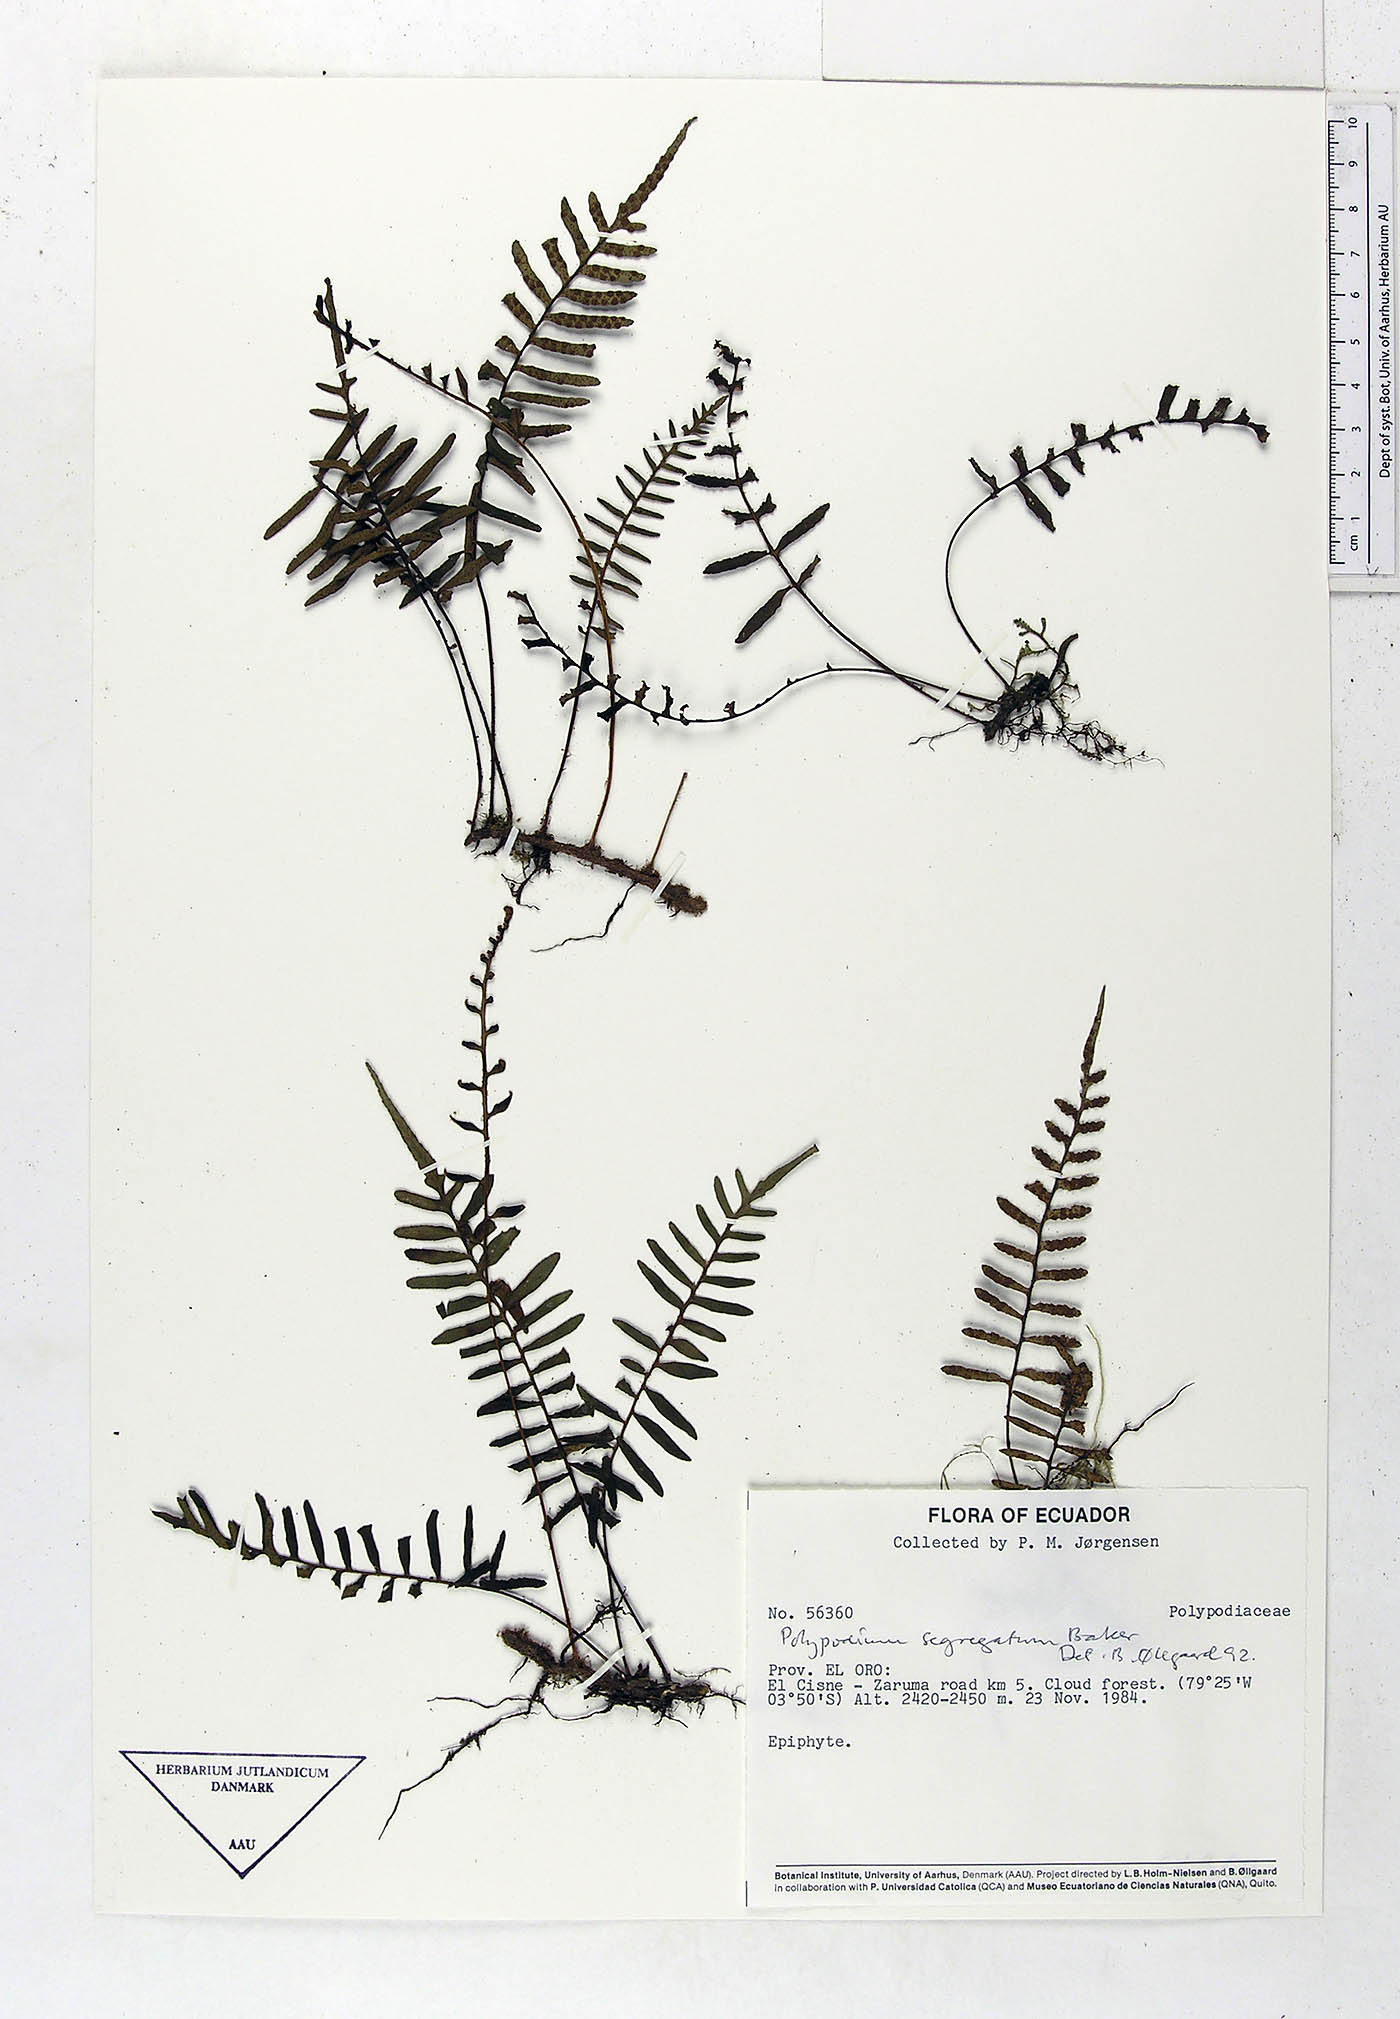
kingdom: Plantae
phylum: Tracheophyta
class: Polypodiopsida
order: Polypodiales
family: Polypodiaceae
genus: Pleopeltis
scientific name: Pleopeltis segregata
